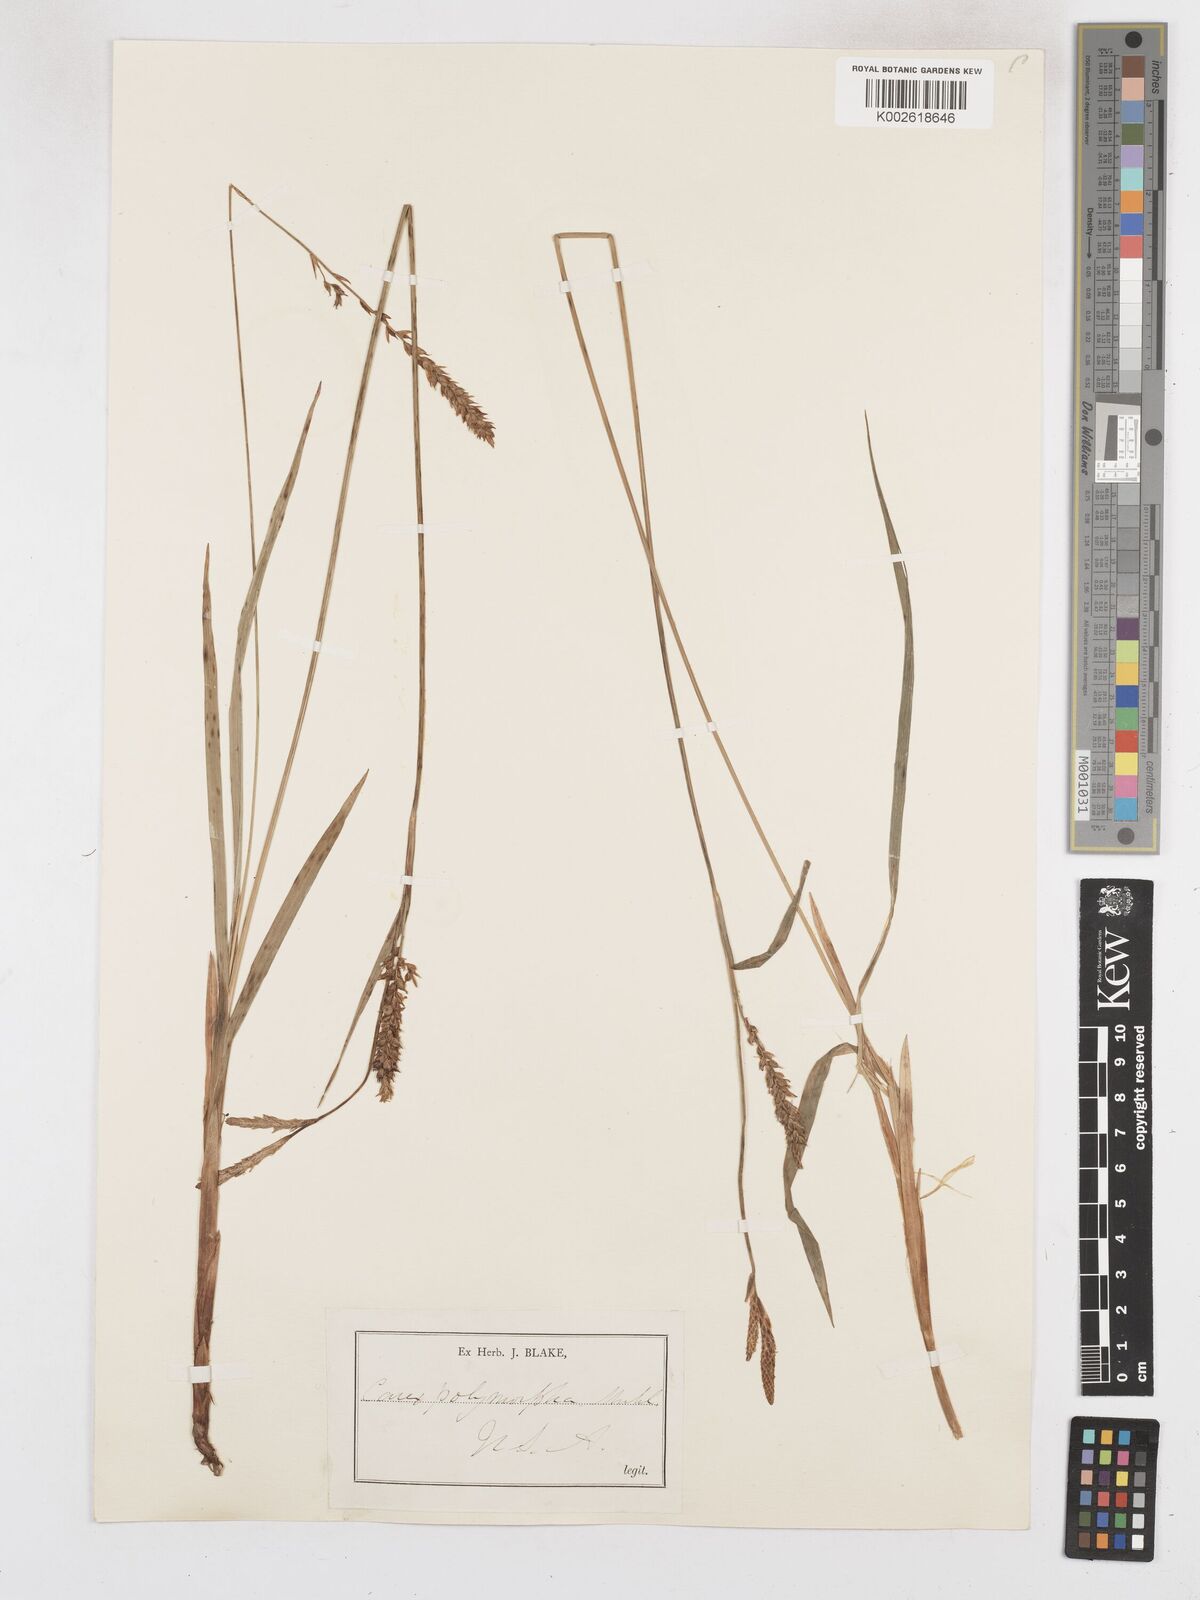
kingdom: Plantae
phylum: Tracheophyta
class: Liliopsida
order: Poales
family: Cyperaceae
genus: Carex
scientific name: Carex polymorpha
